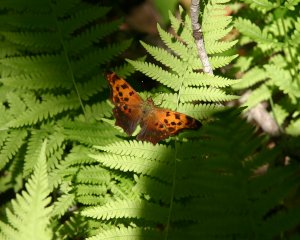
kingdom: Animalia
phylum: Arthropoda
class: Insecta
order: Lepidoptera
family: Nymphalidae
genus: Polygonia
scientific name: Polygonia interrogationis
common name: Question Mark
